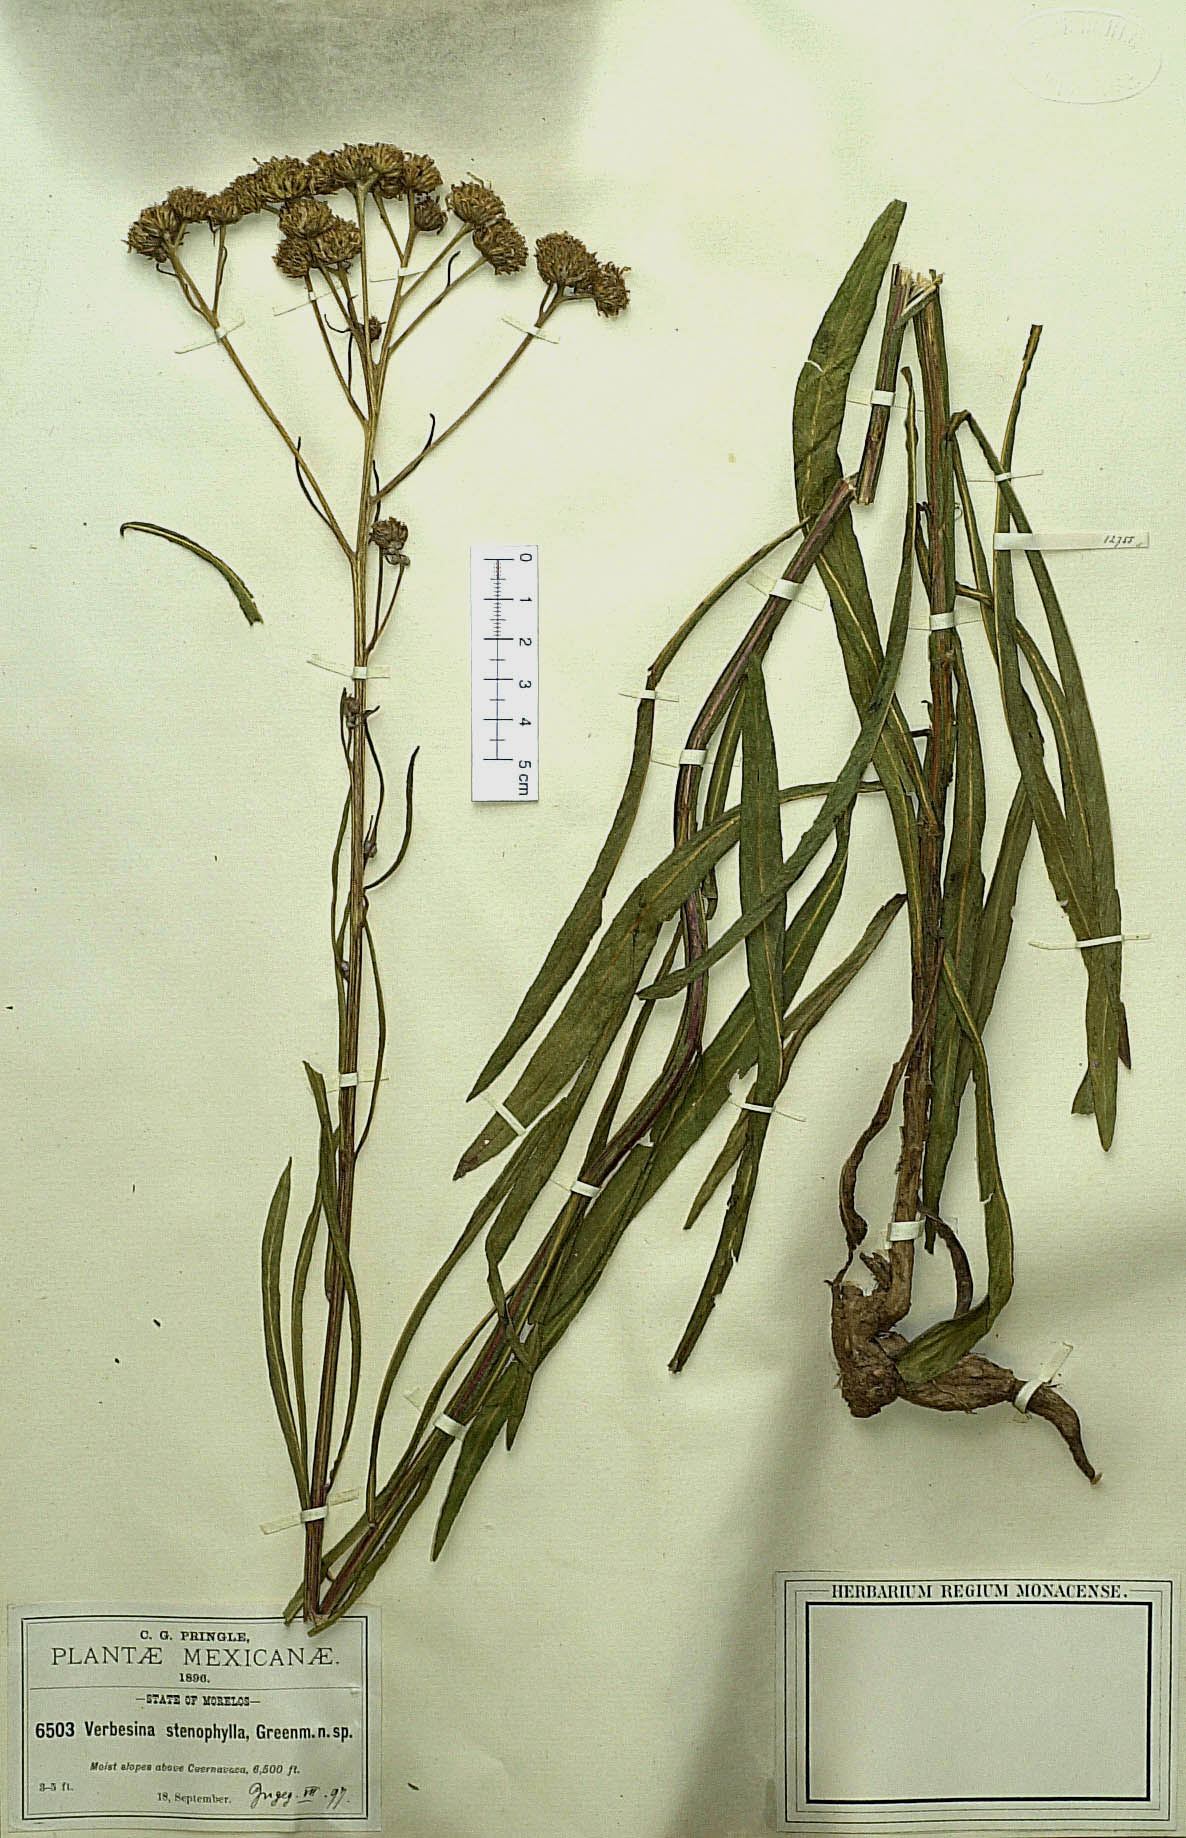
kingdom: Plantae
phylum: Tracheophyta
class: Magnoliopsida
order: Asterales
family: Asteraceae
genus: Verbesina
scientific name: Verbesina stenophylla
